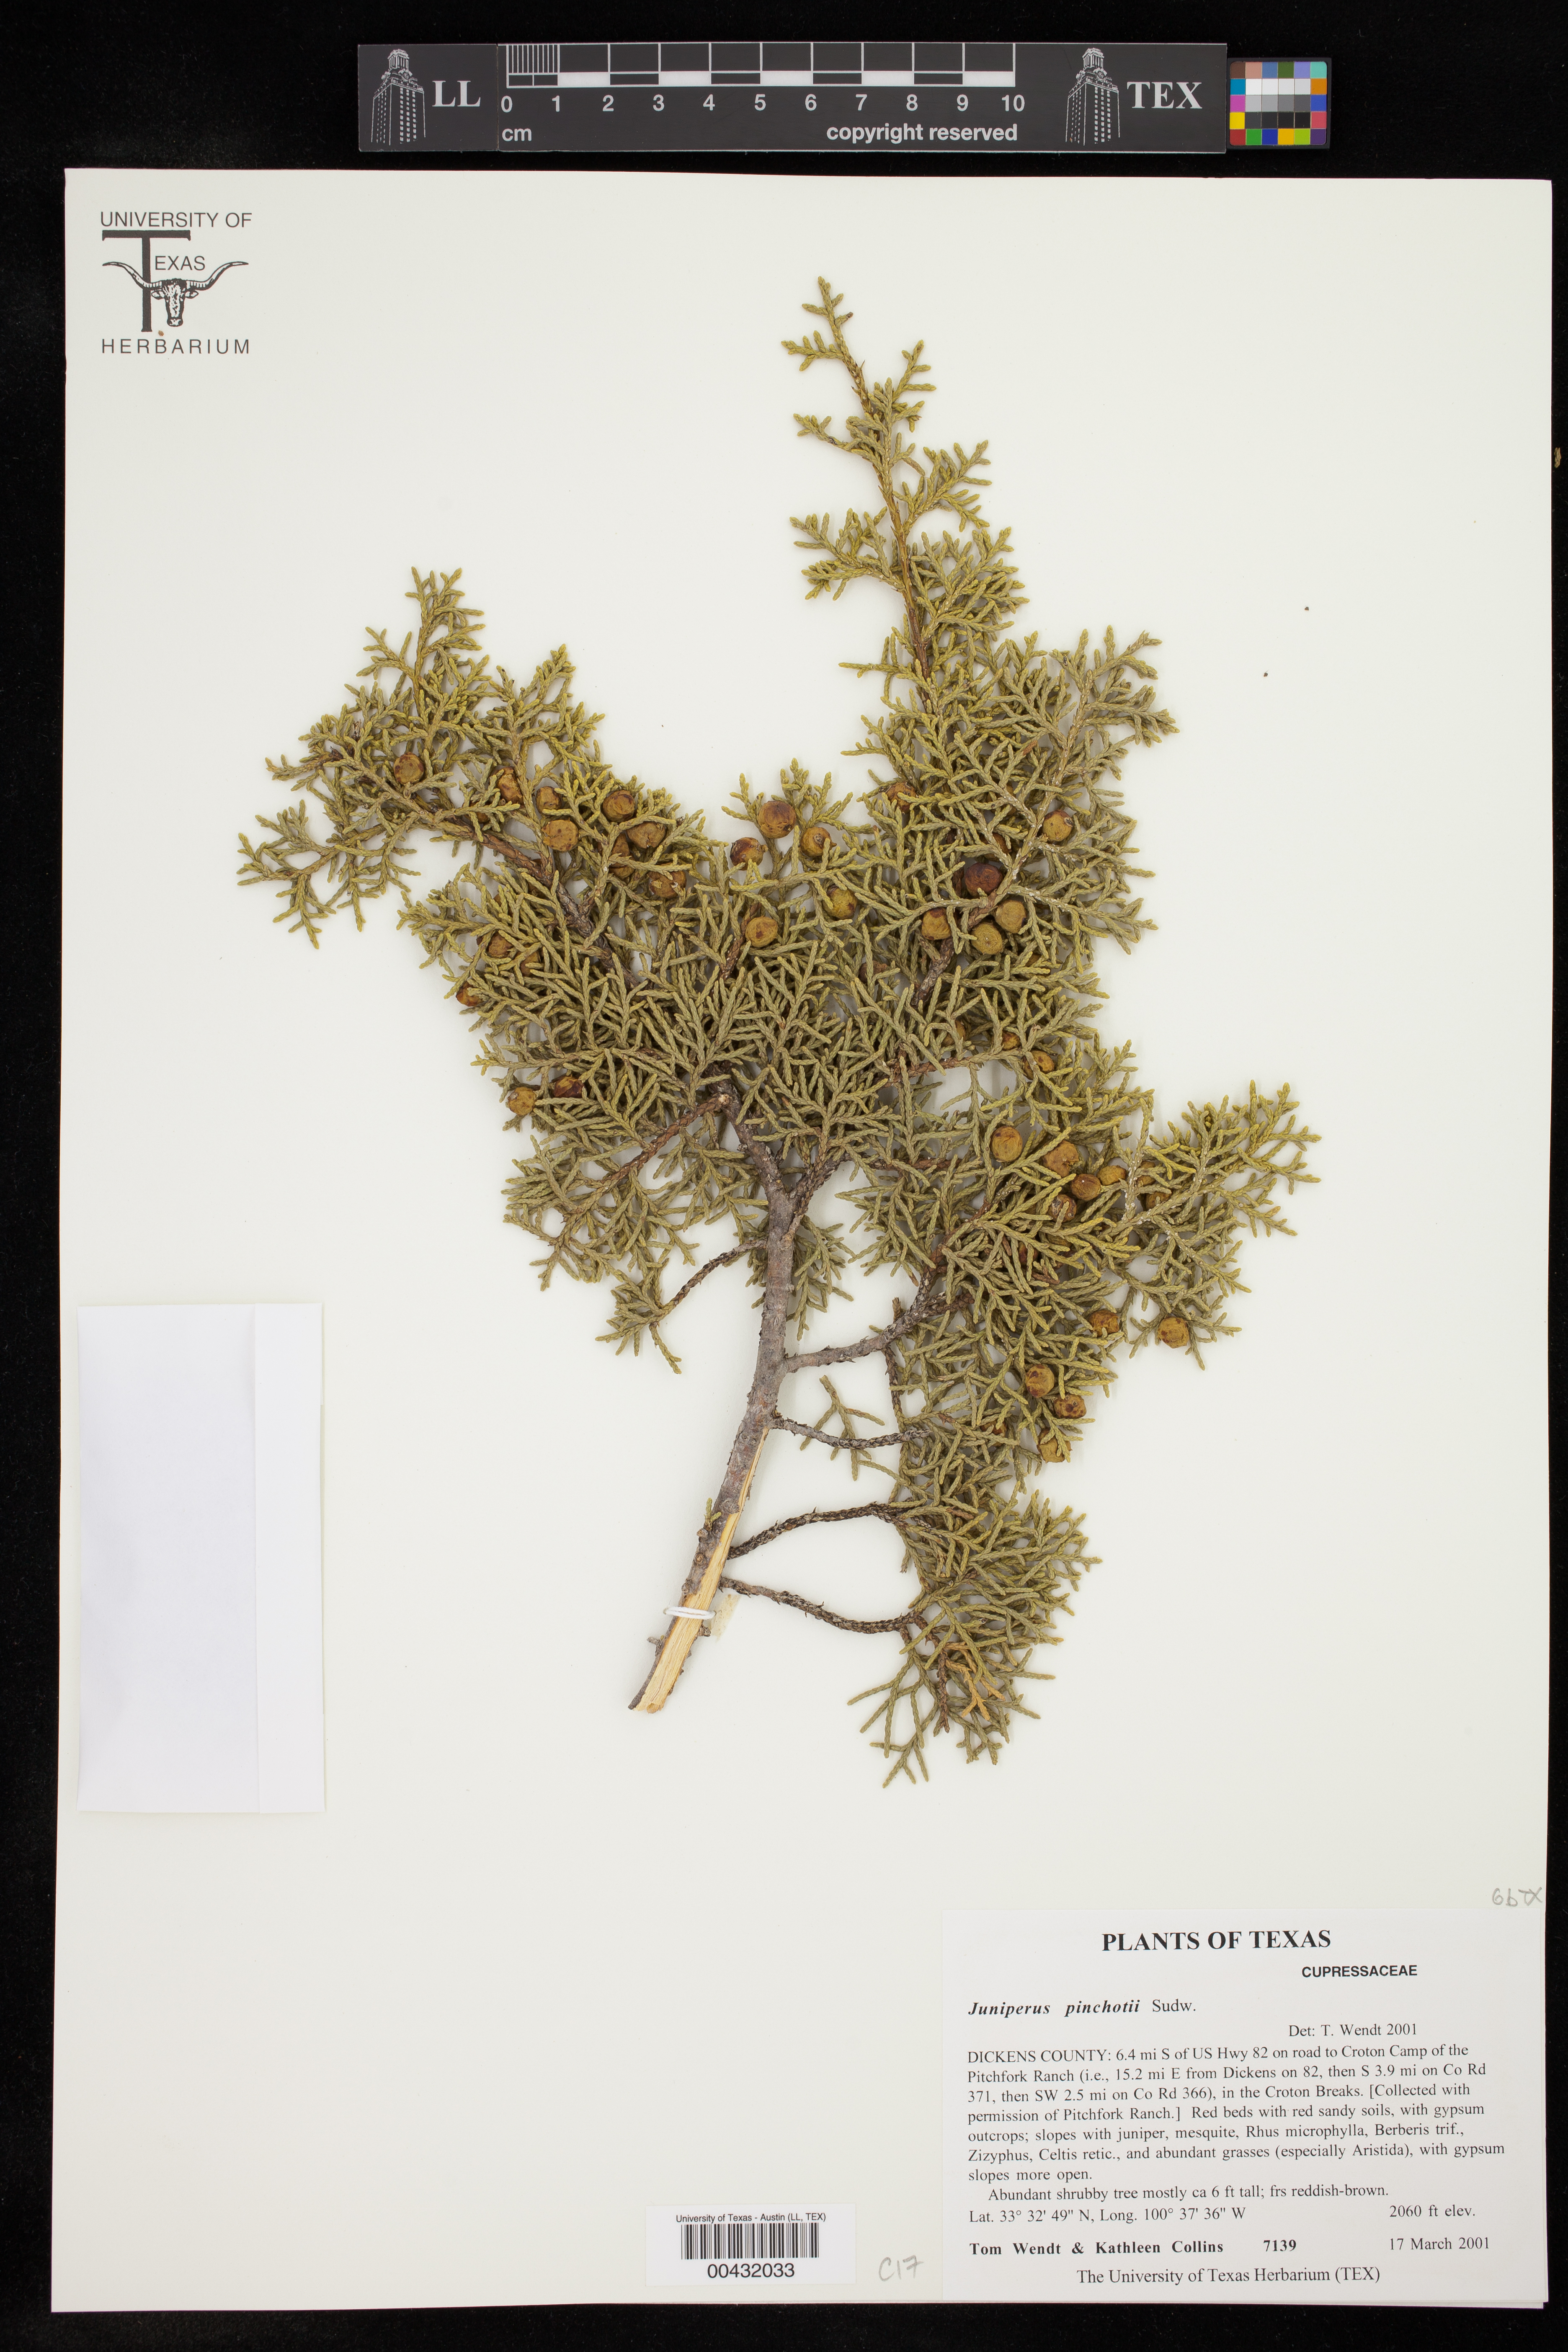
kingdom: Plantae
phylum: Tracheophyta
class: Pinopsida
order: Pinales
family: Cupressaceae
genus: Juniperus
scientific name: Juniperus pinchotii
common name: Pinchot juniper
